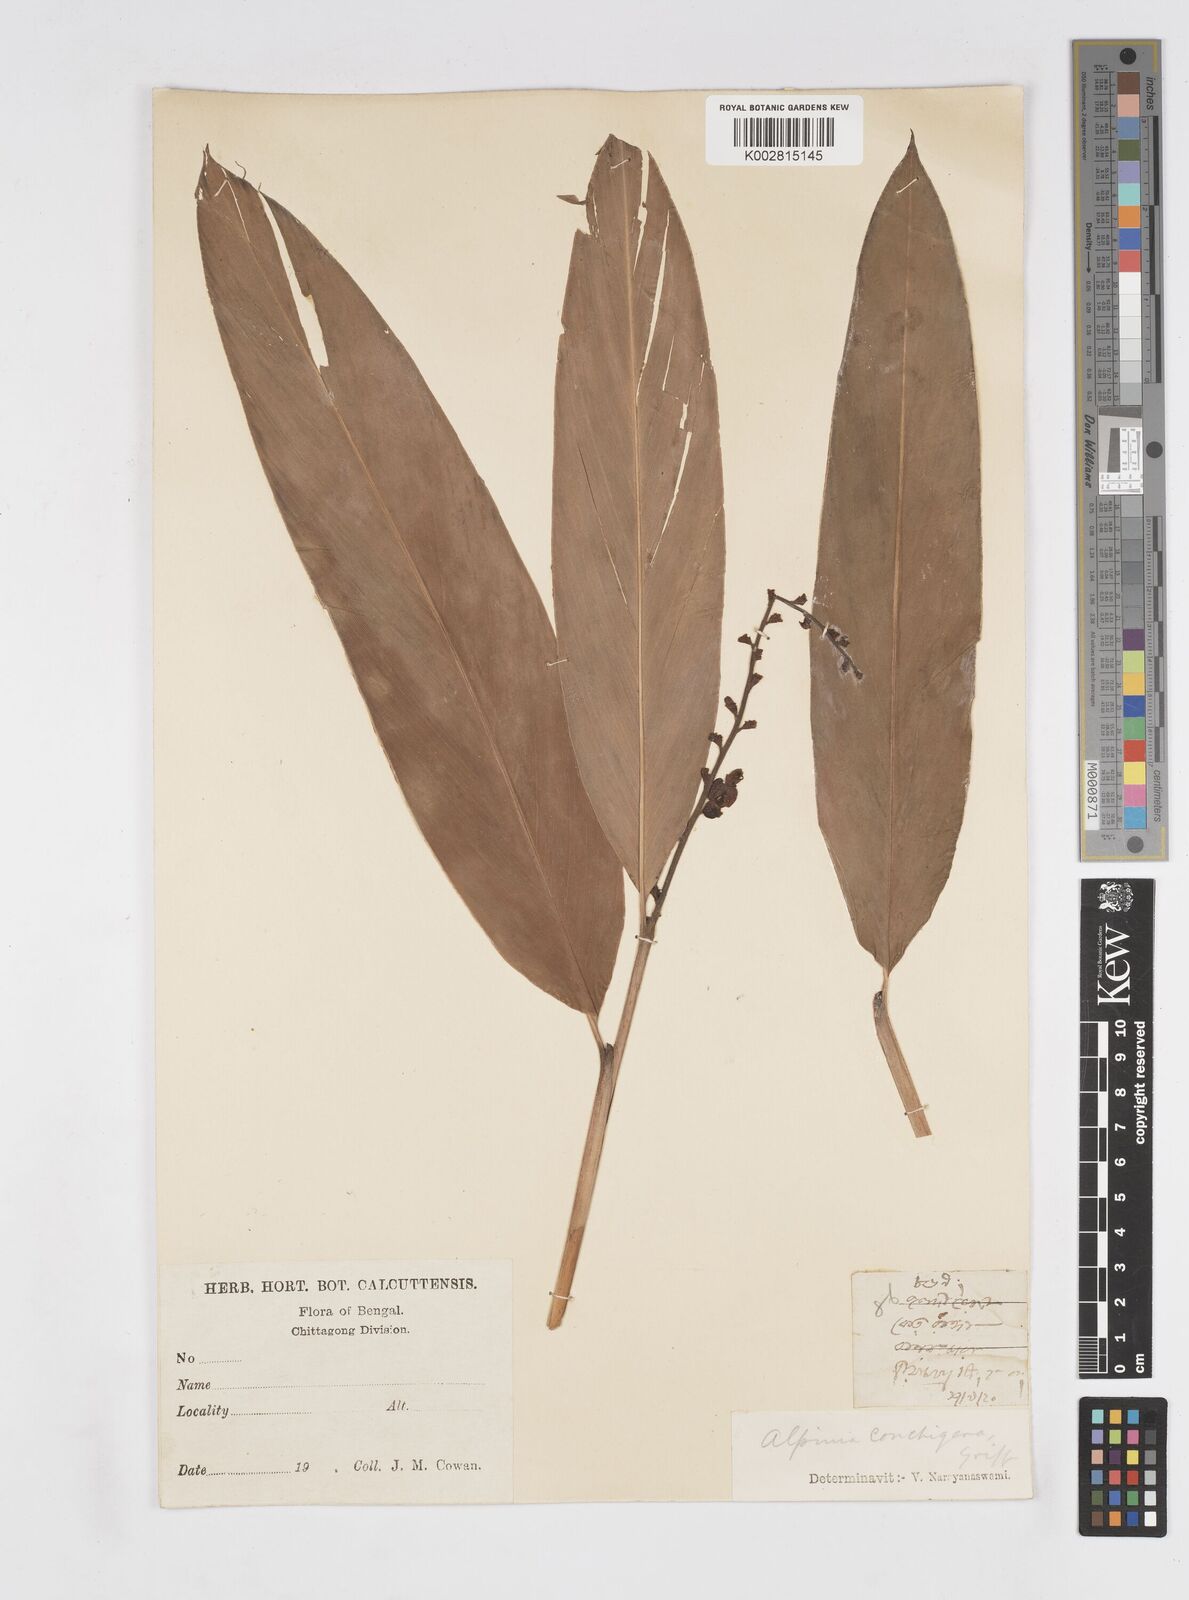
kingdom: Plantae
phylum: Tracheophyta
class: Liliopsida
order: Zingiberales
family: Zingiberaceae
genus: Alpinia
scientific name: Alpinia conchigera
